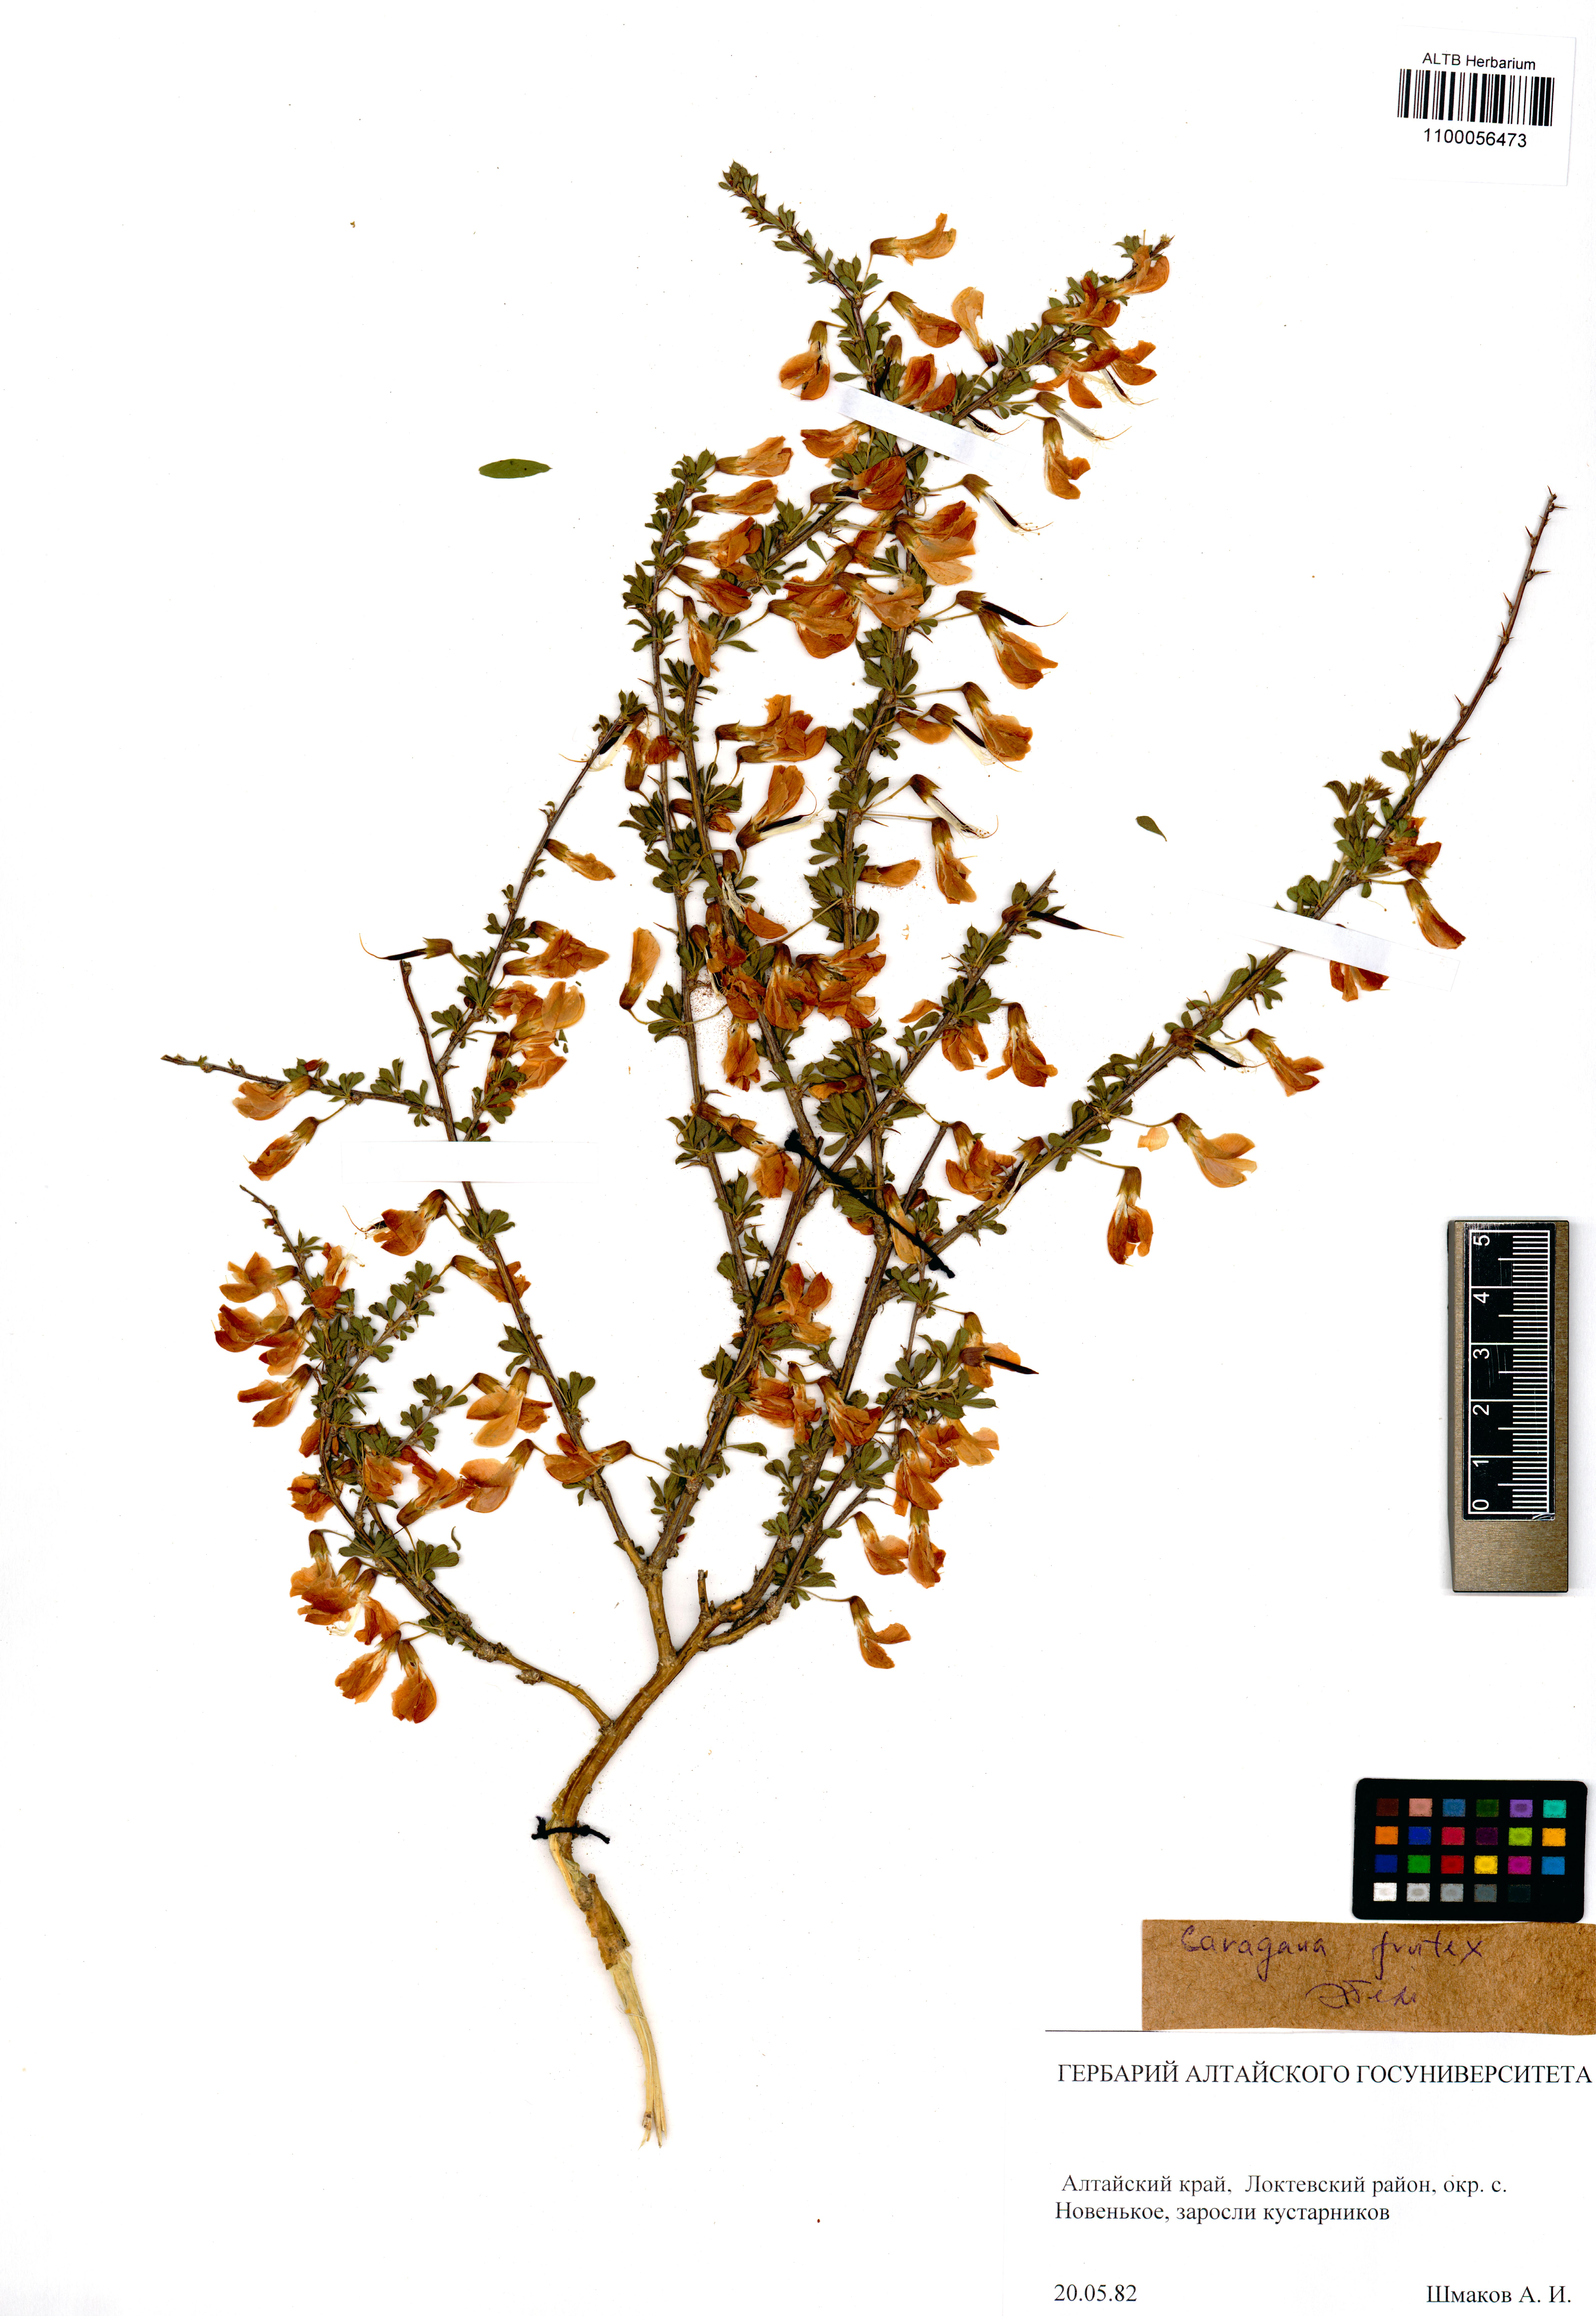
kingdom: Plantae
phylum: Tracheophyta
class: Magnoliopsida
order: Fabales
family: Fabaceae
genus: Caragana
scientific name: Caragana frutex
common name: Russian peashrub
